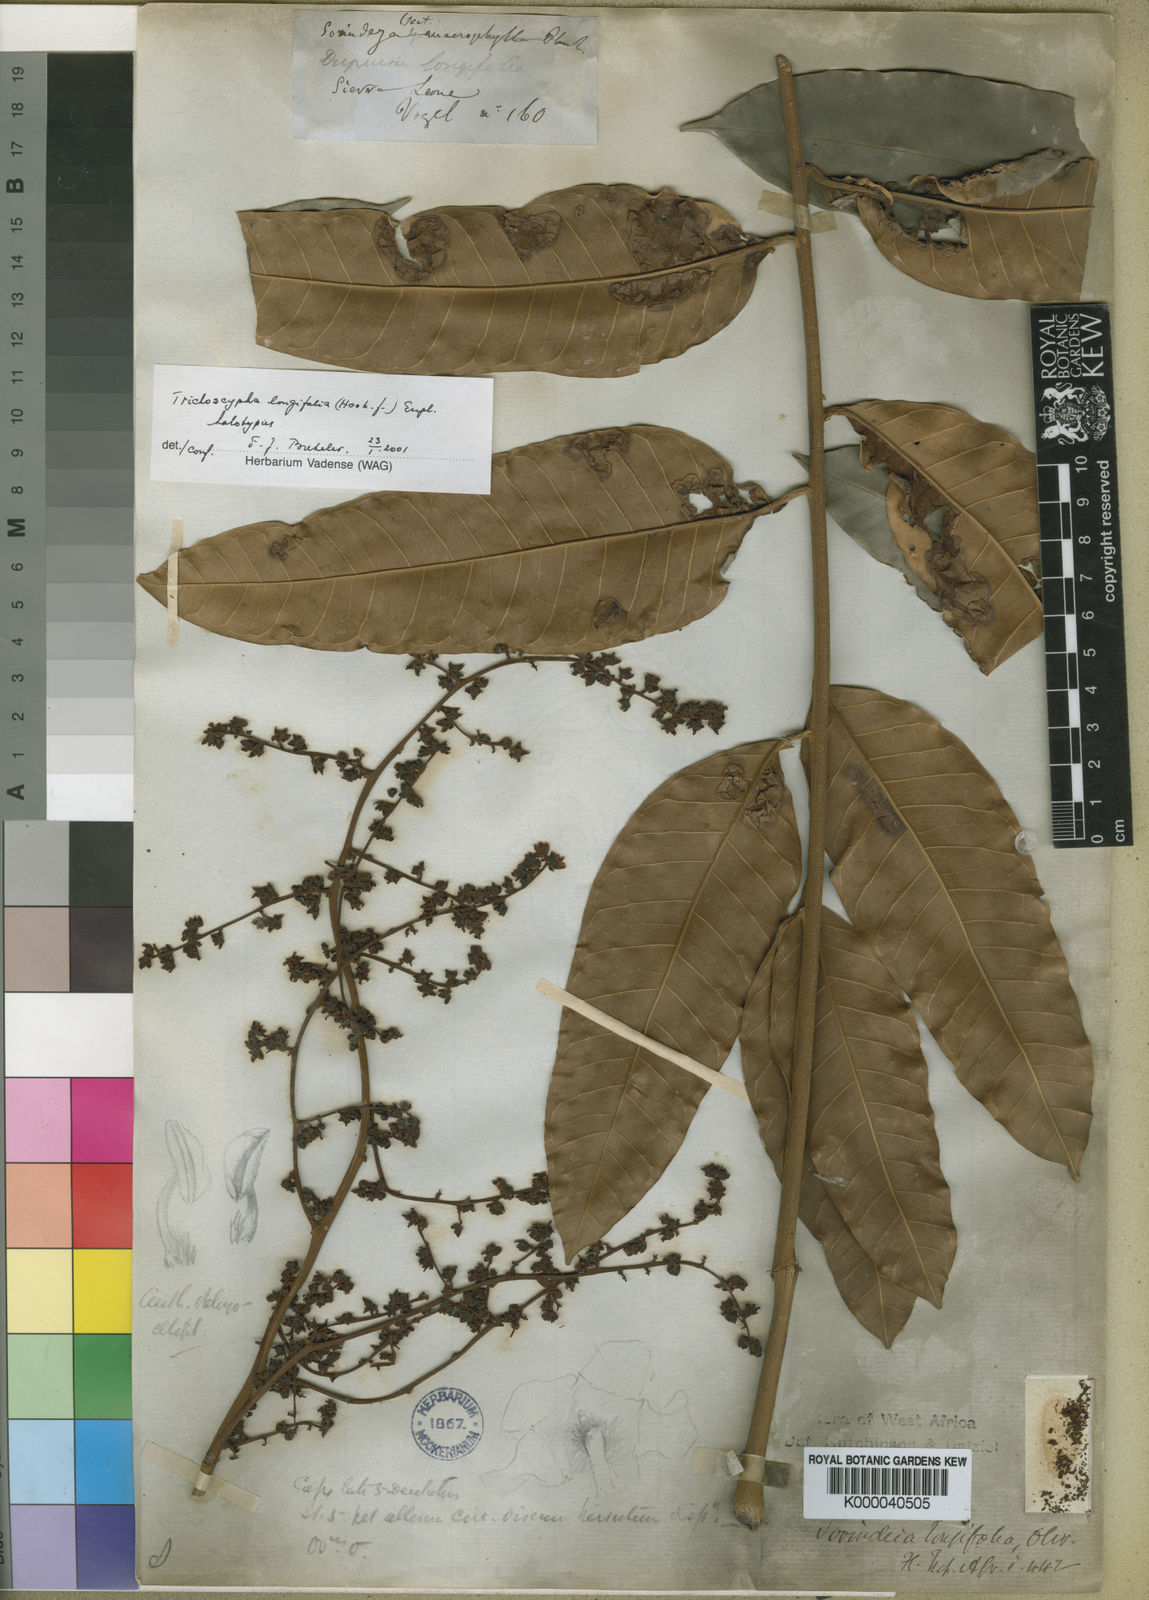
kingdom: Plantae
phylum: Tracheophyta
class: Magnoliopsida
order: Sapindales
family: Anacardiaceae
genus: Trichoscypha
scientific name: Trichoscypha longifolia
